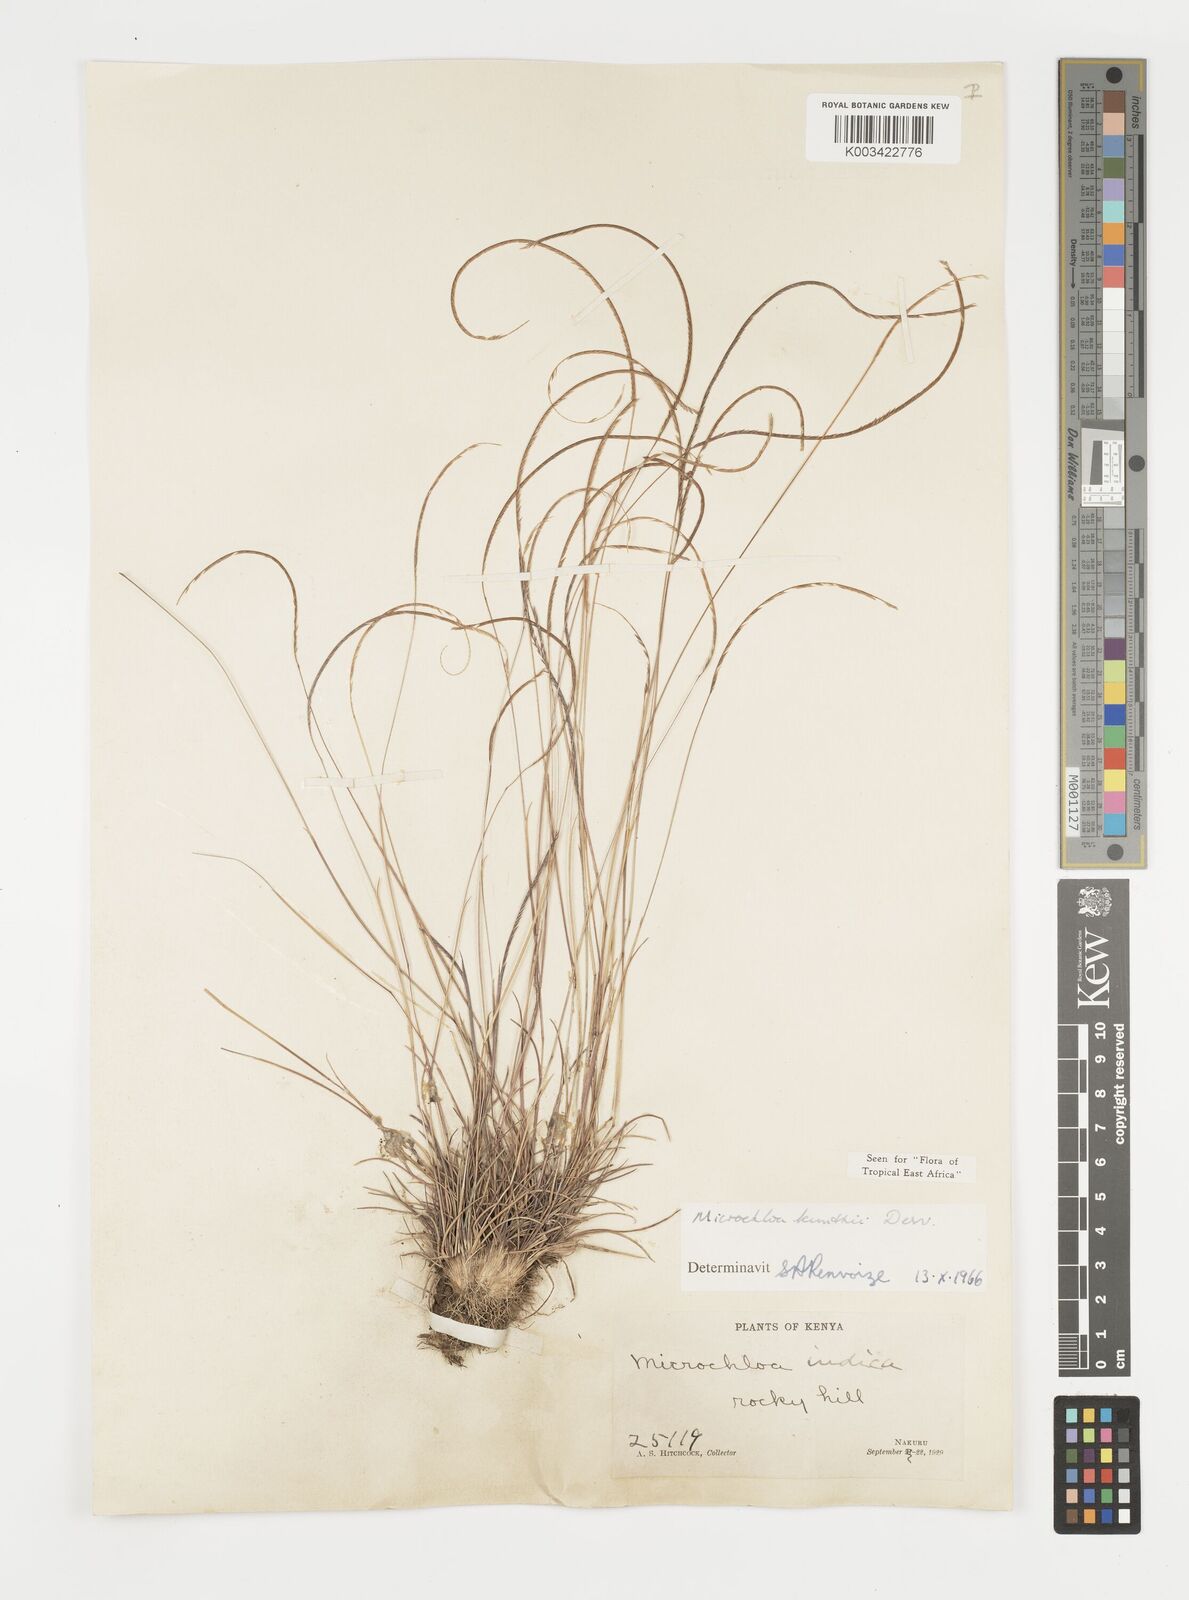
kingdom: Plantae
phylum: Tracheophyta
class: Liliopsida
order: Poales
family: Poaceae
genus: Microchloa
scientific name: Microchloa kunthii
